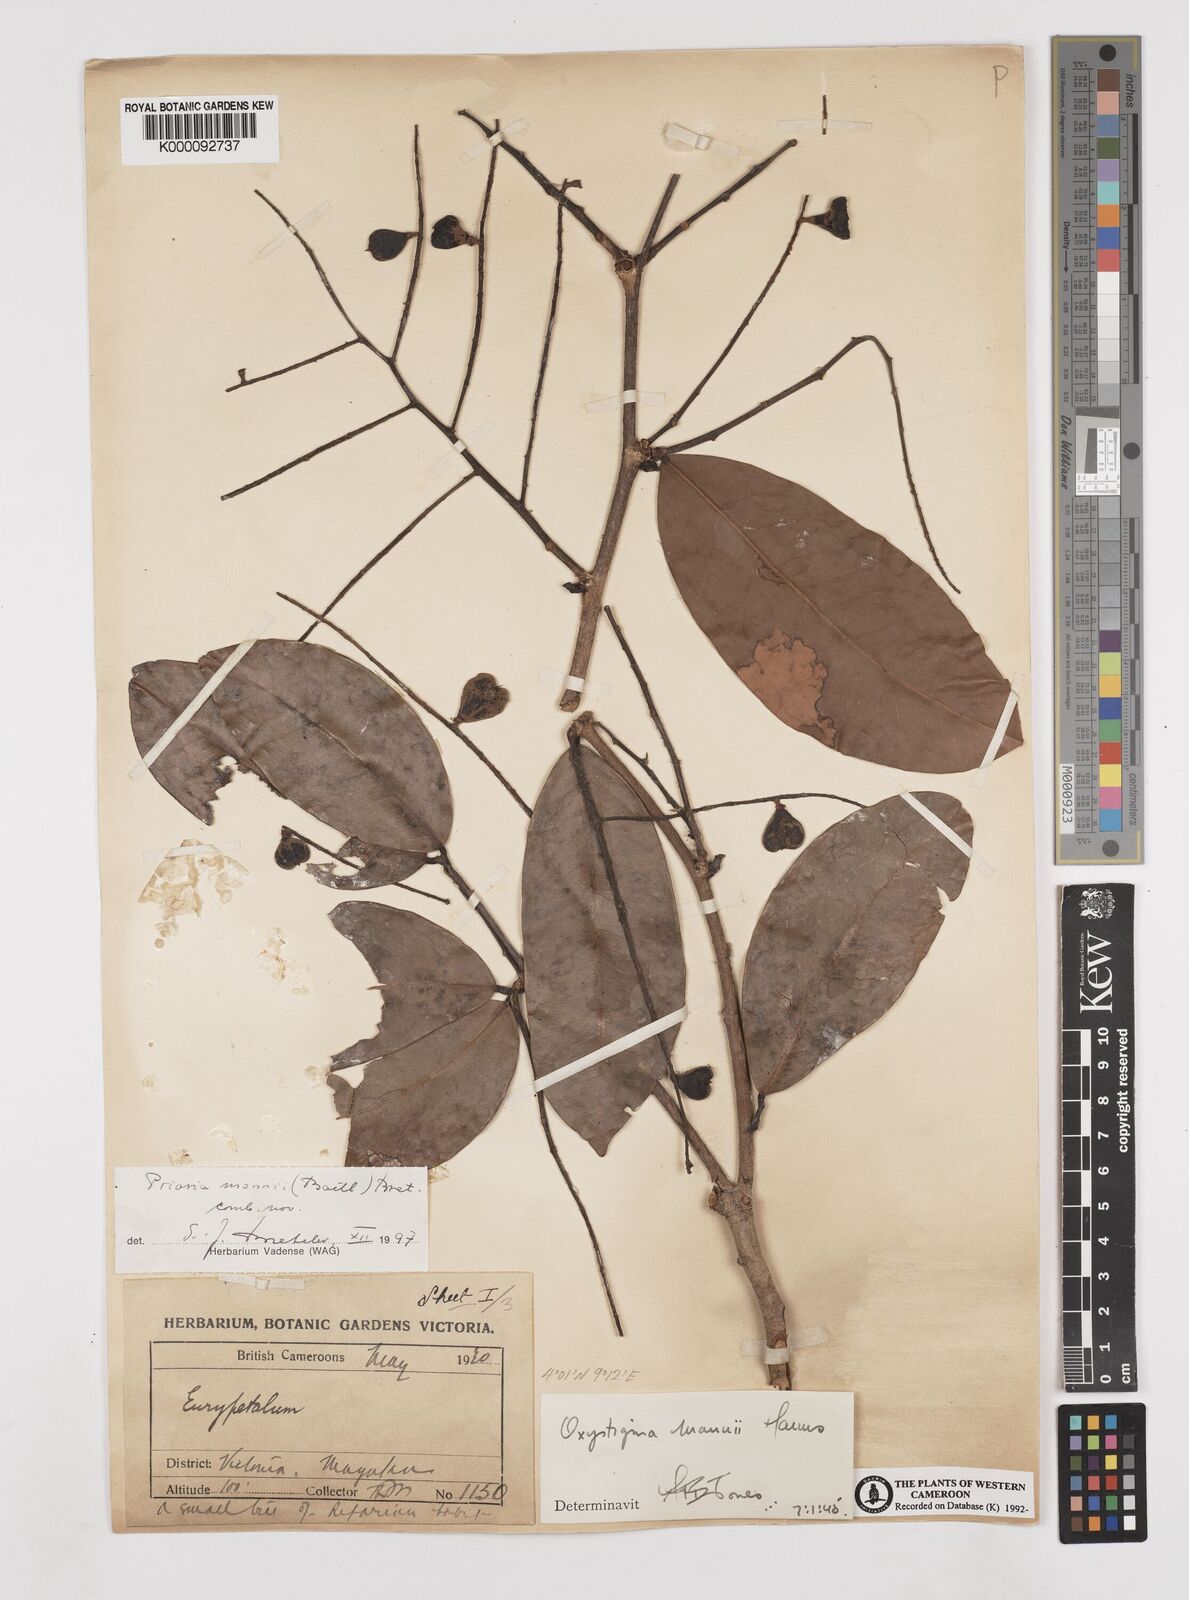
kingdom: Plantae
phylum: Tracheophyta
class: Magnoliopsida
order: Fabales
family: Fabaceae
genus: Prioria
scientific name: Prioria mannii
